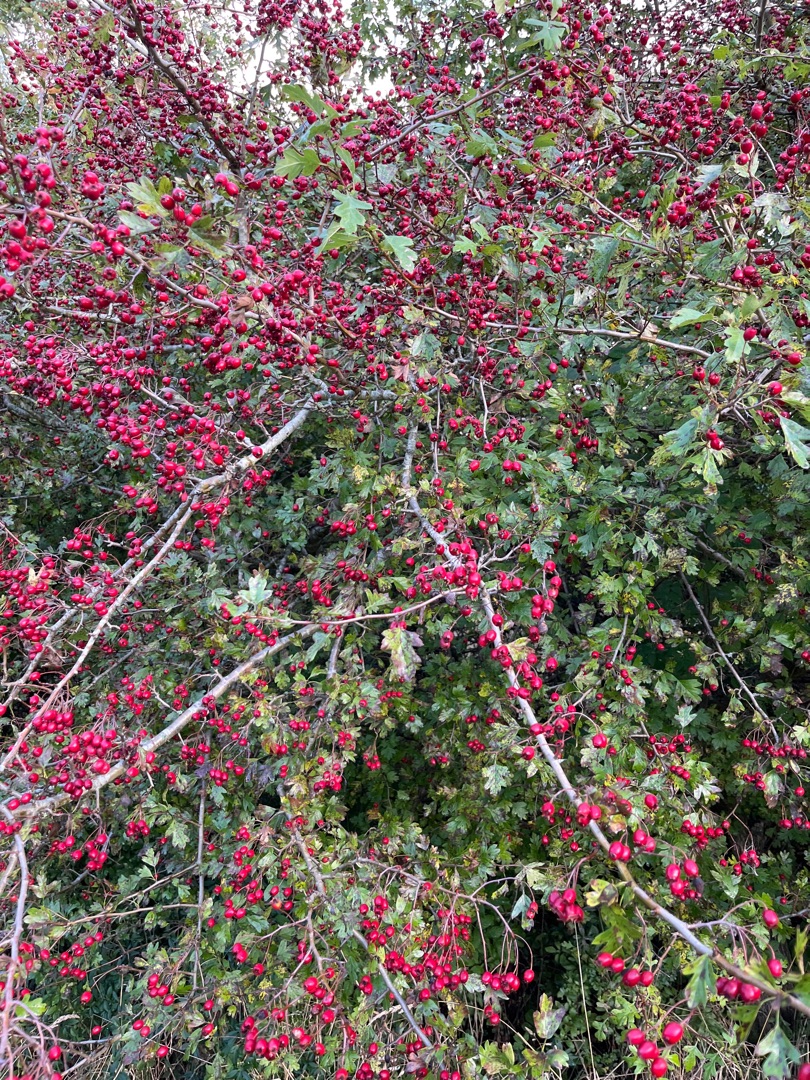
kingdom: Plantae
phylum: Tracheophyta
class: Magnoliopsida
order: Rosales
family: Rosaceae
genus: Crataegus
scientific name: Crataegus monogyna
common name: Engriflet hvidtjørn
